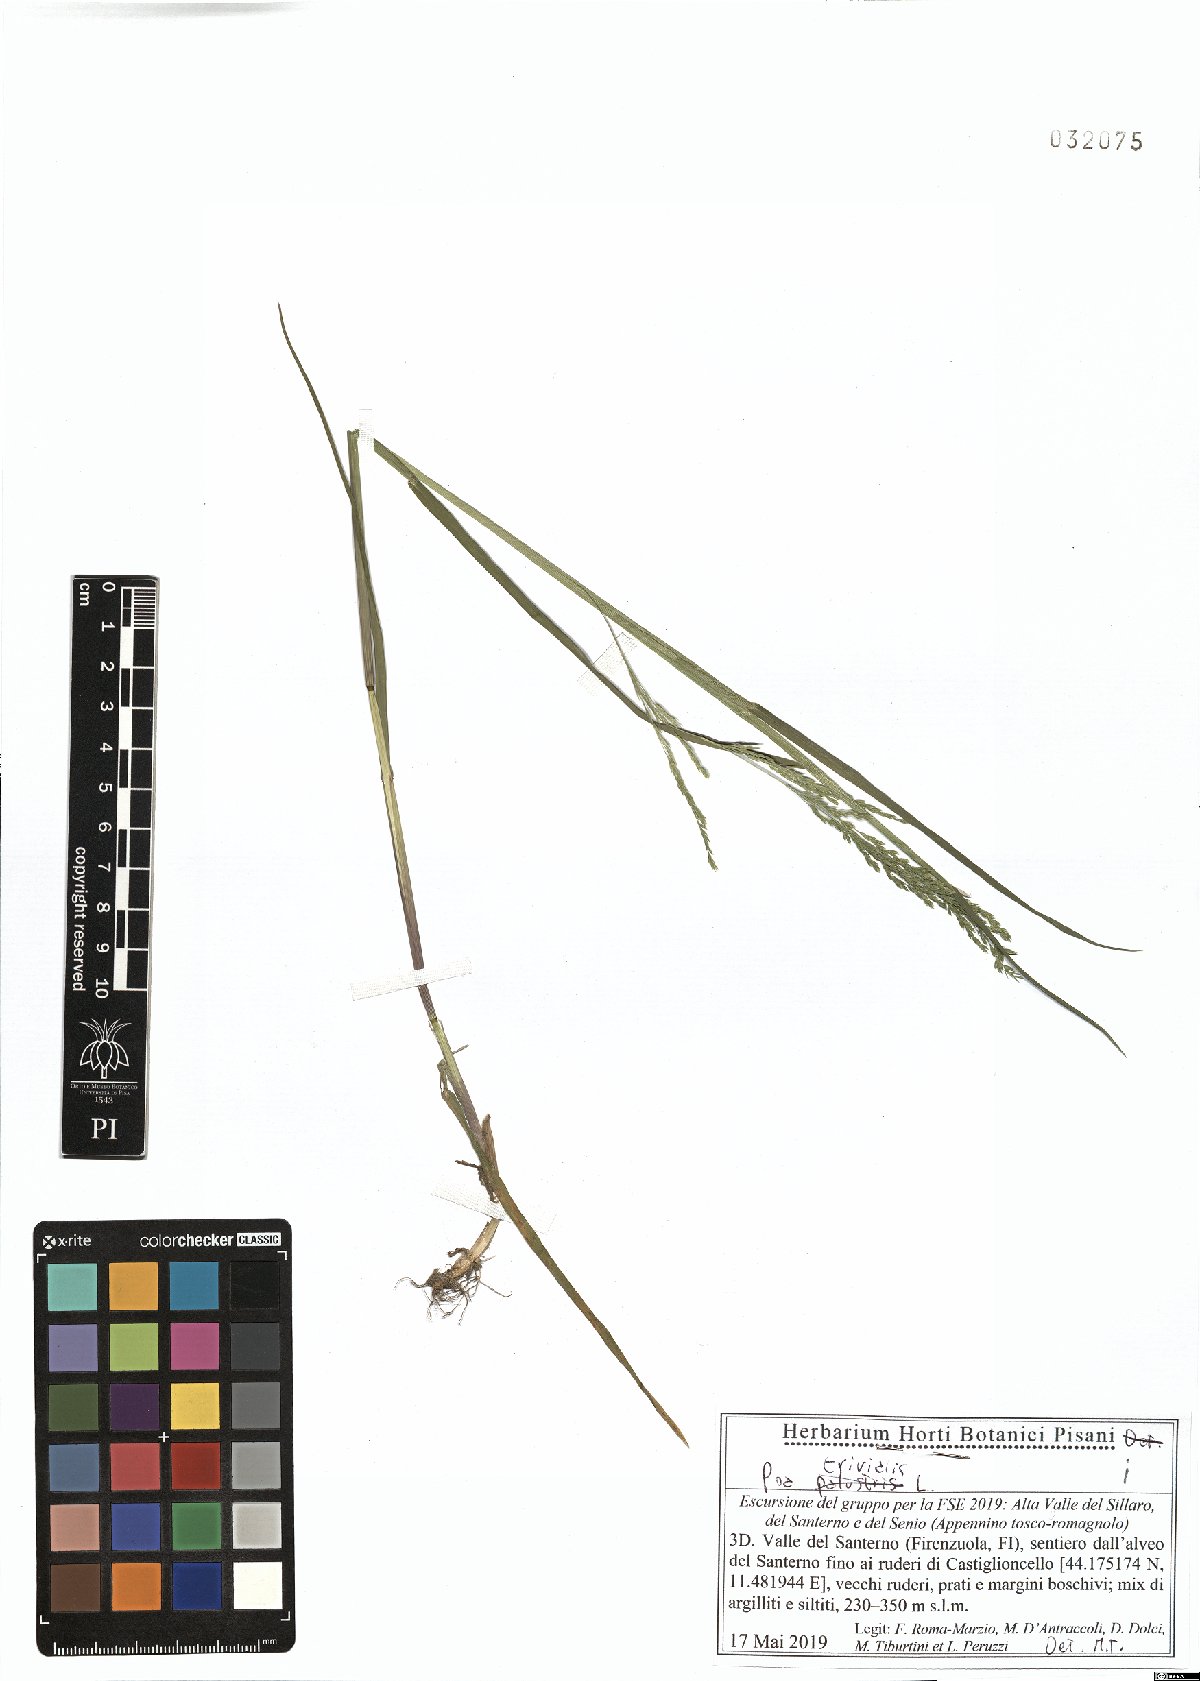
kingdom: Plantae
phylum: Tracheophyta
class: Liliopsida
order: Poales
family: Poaceae
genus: Poa
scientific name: Poa trivialis
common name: Rough bluegrass
